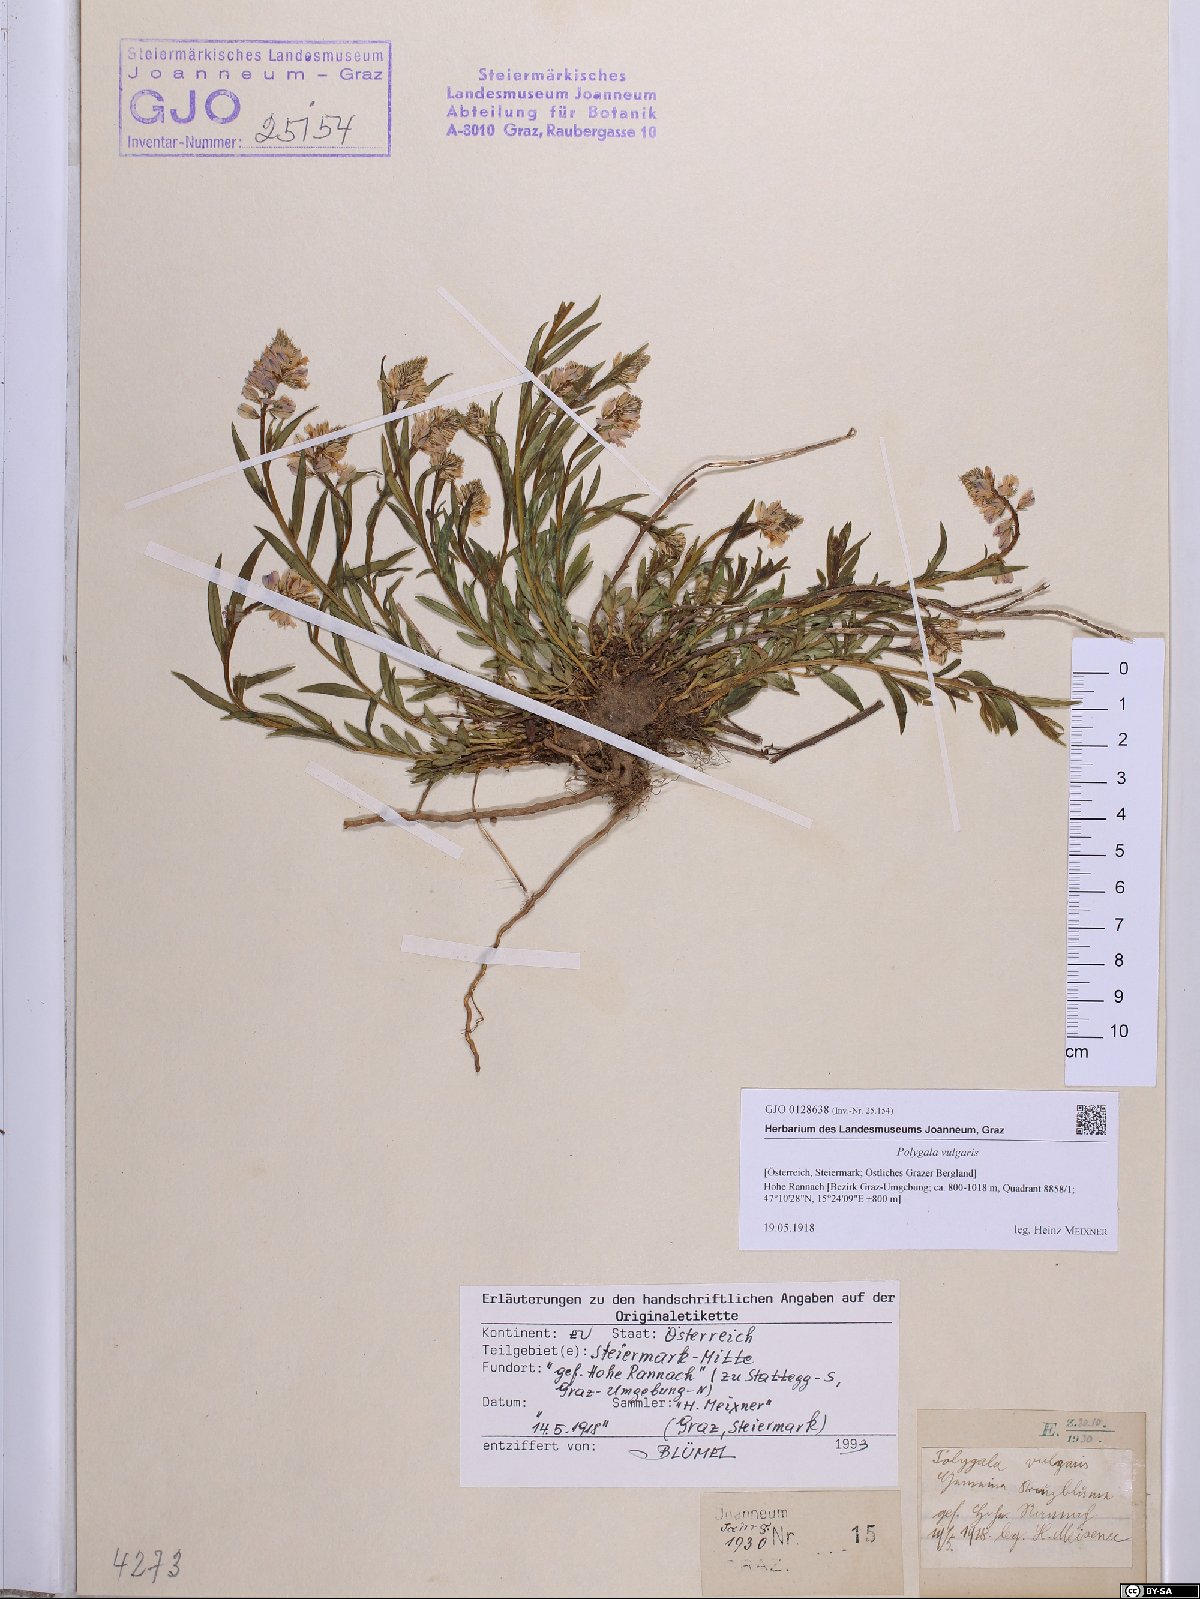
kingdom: Plantae
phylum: Tracheophyta
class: Magnoliopsida
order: Fabales
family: Polygalaceae
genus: Polygala
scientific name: Polygala vulgaris
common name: Common milkwort
